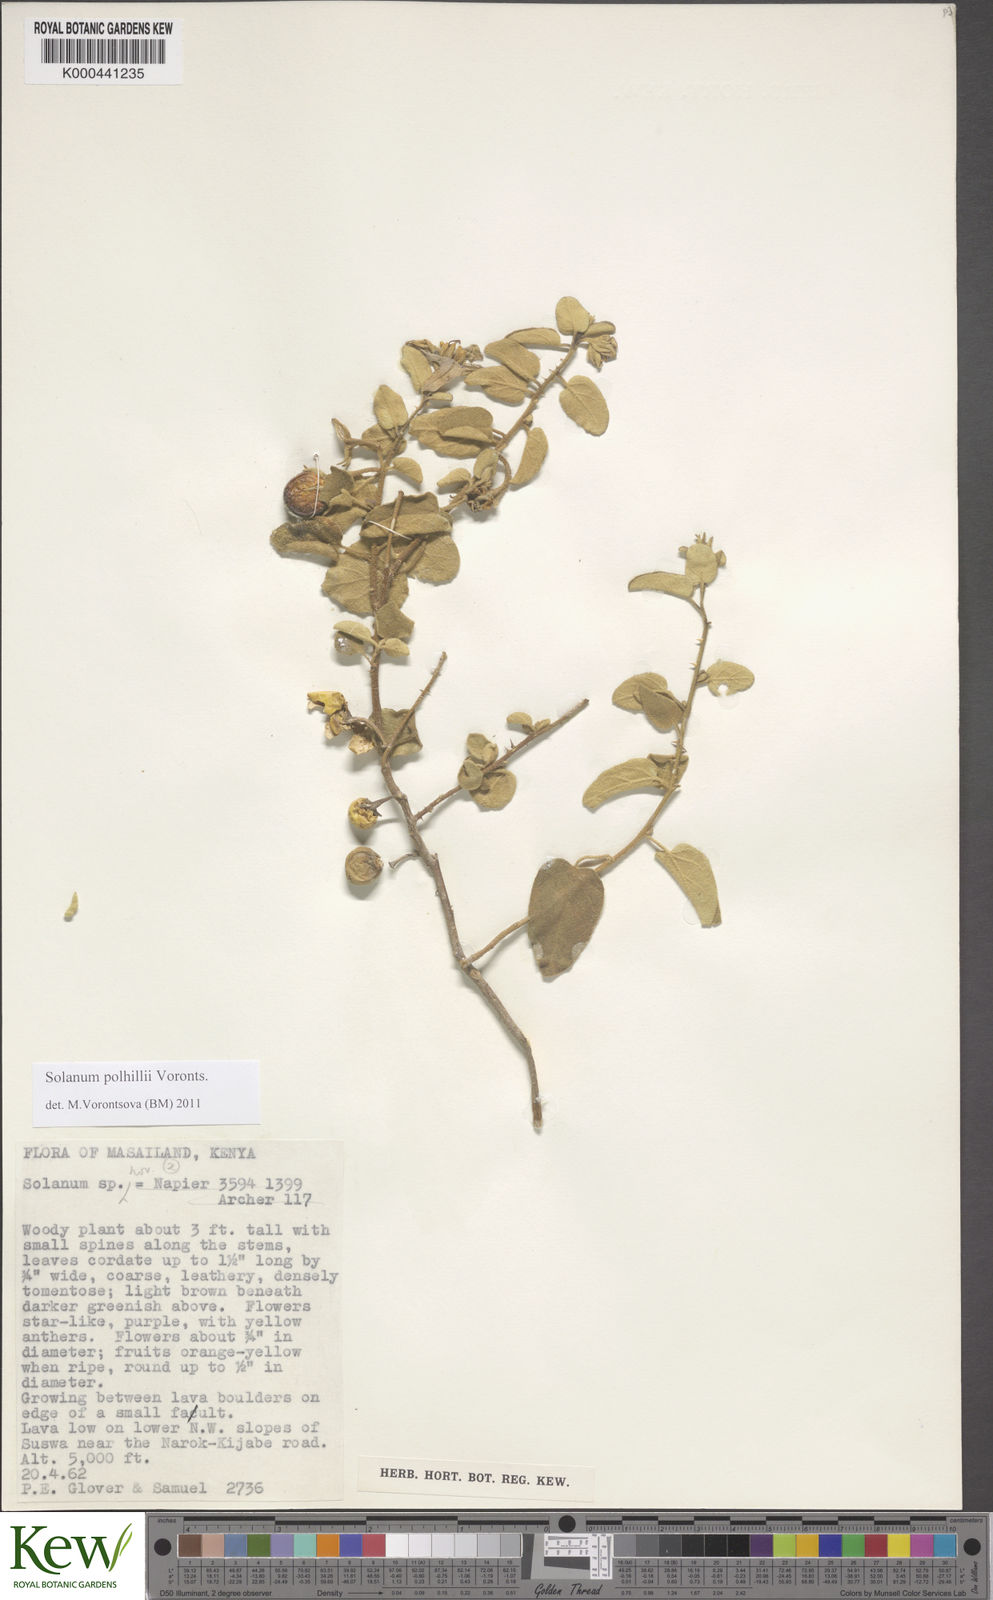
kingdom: Plantae
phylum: Tracheophyta
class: Magnoliopsida
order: Solanales
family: Solanaceae
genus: Solanum
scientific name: Solanum polhillii
